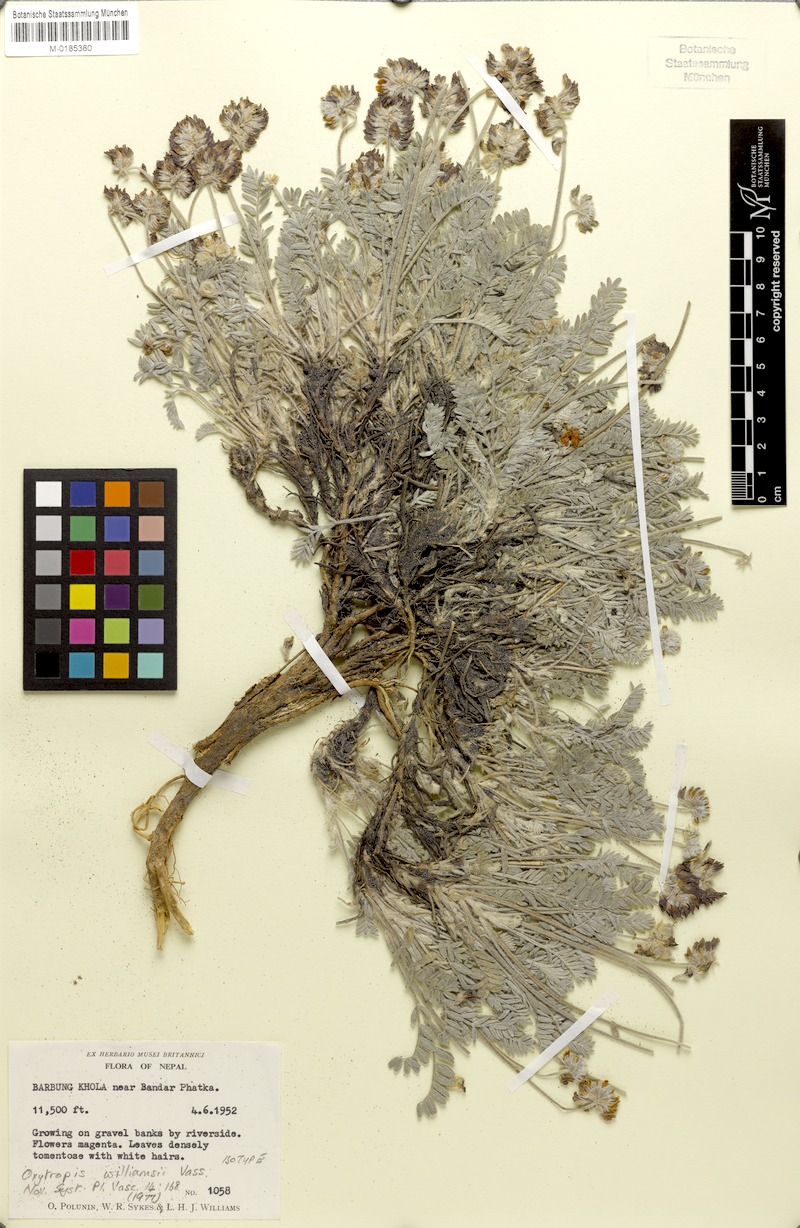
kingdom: Plantae
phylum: Tracheophyta
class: Magnoliopsida
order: Fabales
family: Fabaceae
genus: Oxytropis
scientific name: Oxytropis tatarica
